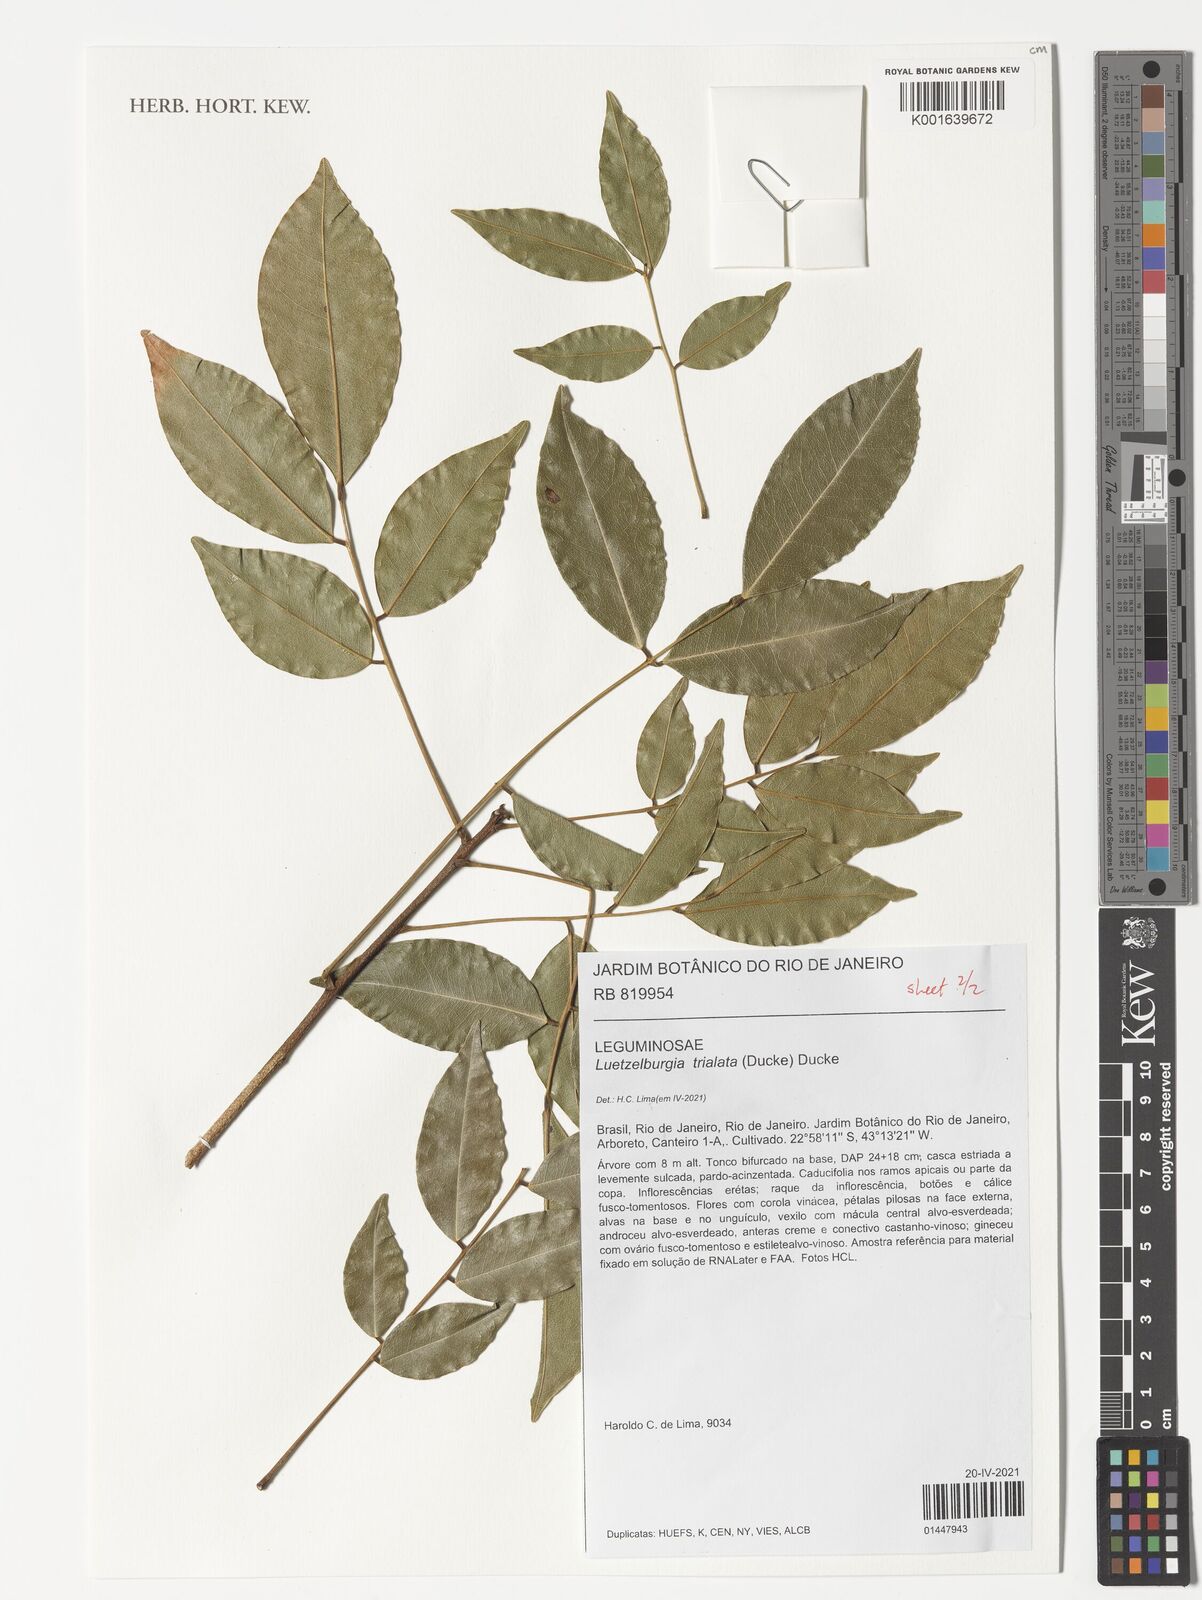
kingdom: Plantae
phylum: Tracheophyta
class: Magnoliopsida
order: Fabales
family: Fabaceae
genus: Luetzelburgia
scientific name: Luetzelburgia trialata
